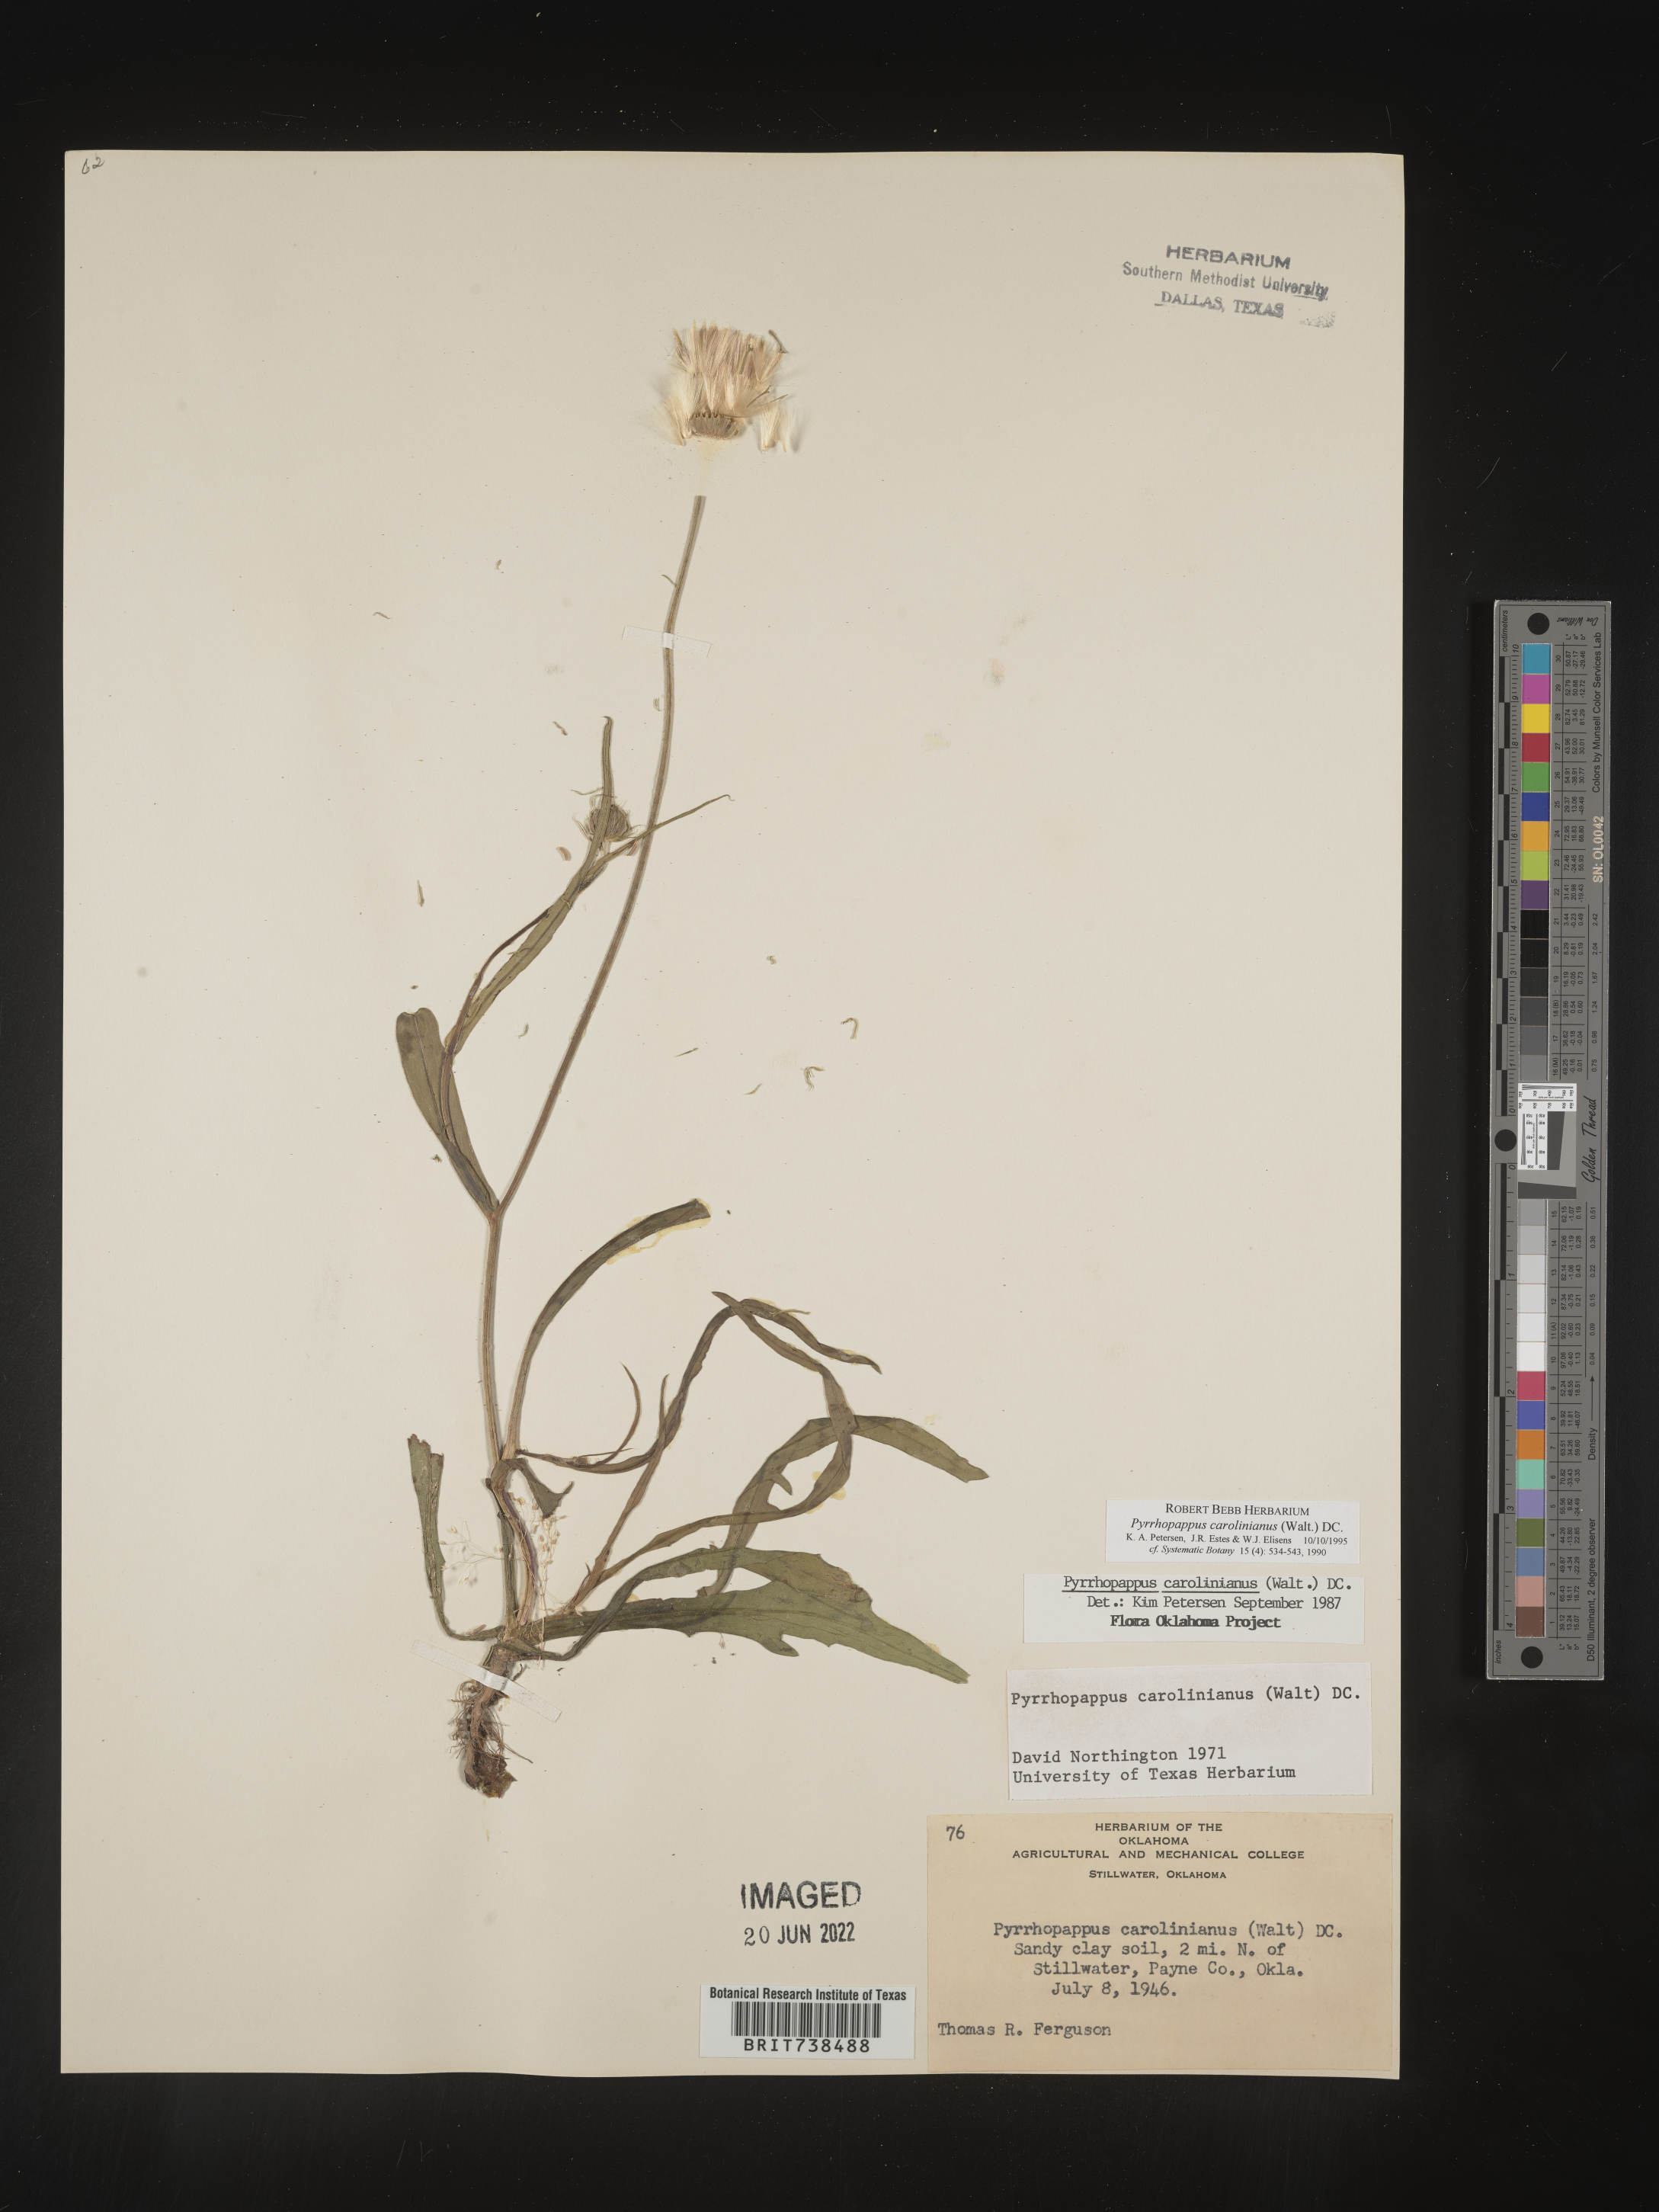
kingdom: Plantae
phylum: Tracheophyta
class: Magnoliopsida
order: Asterales
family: Asteraceae
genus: Pyrrhopappus
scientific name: Pyrrhopappus carolinianus
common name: Carolina desert-chicory
